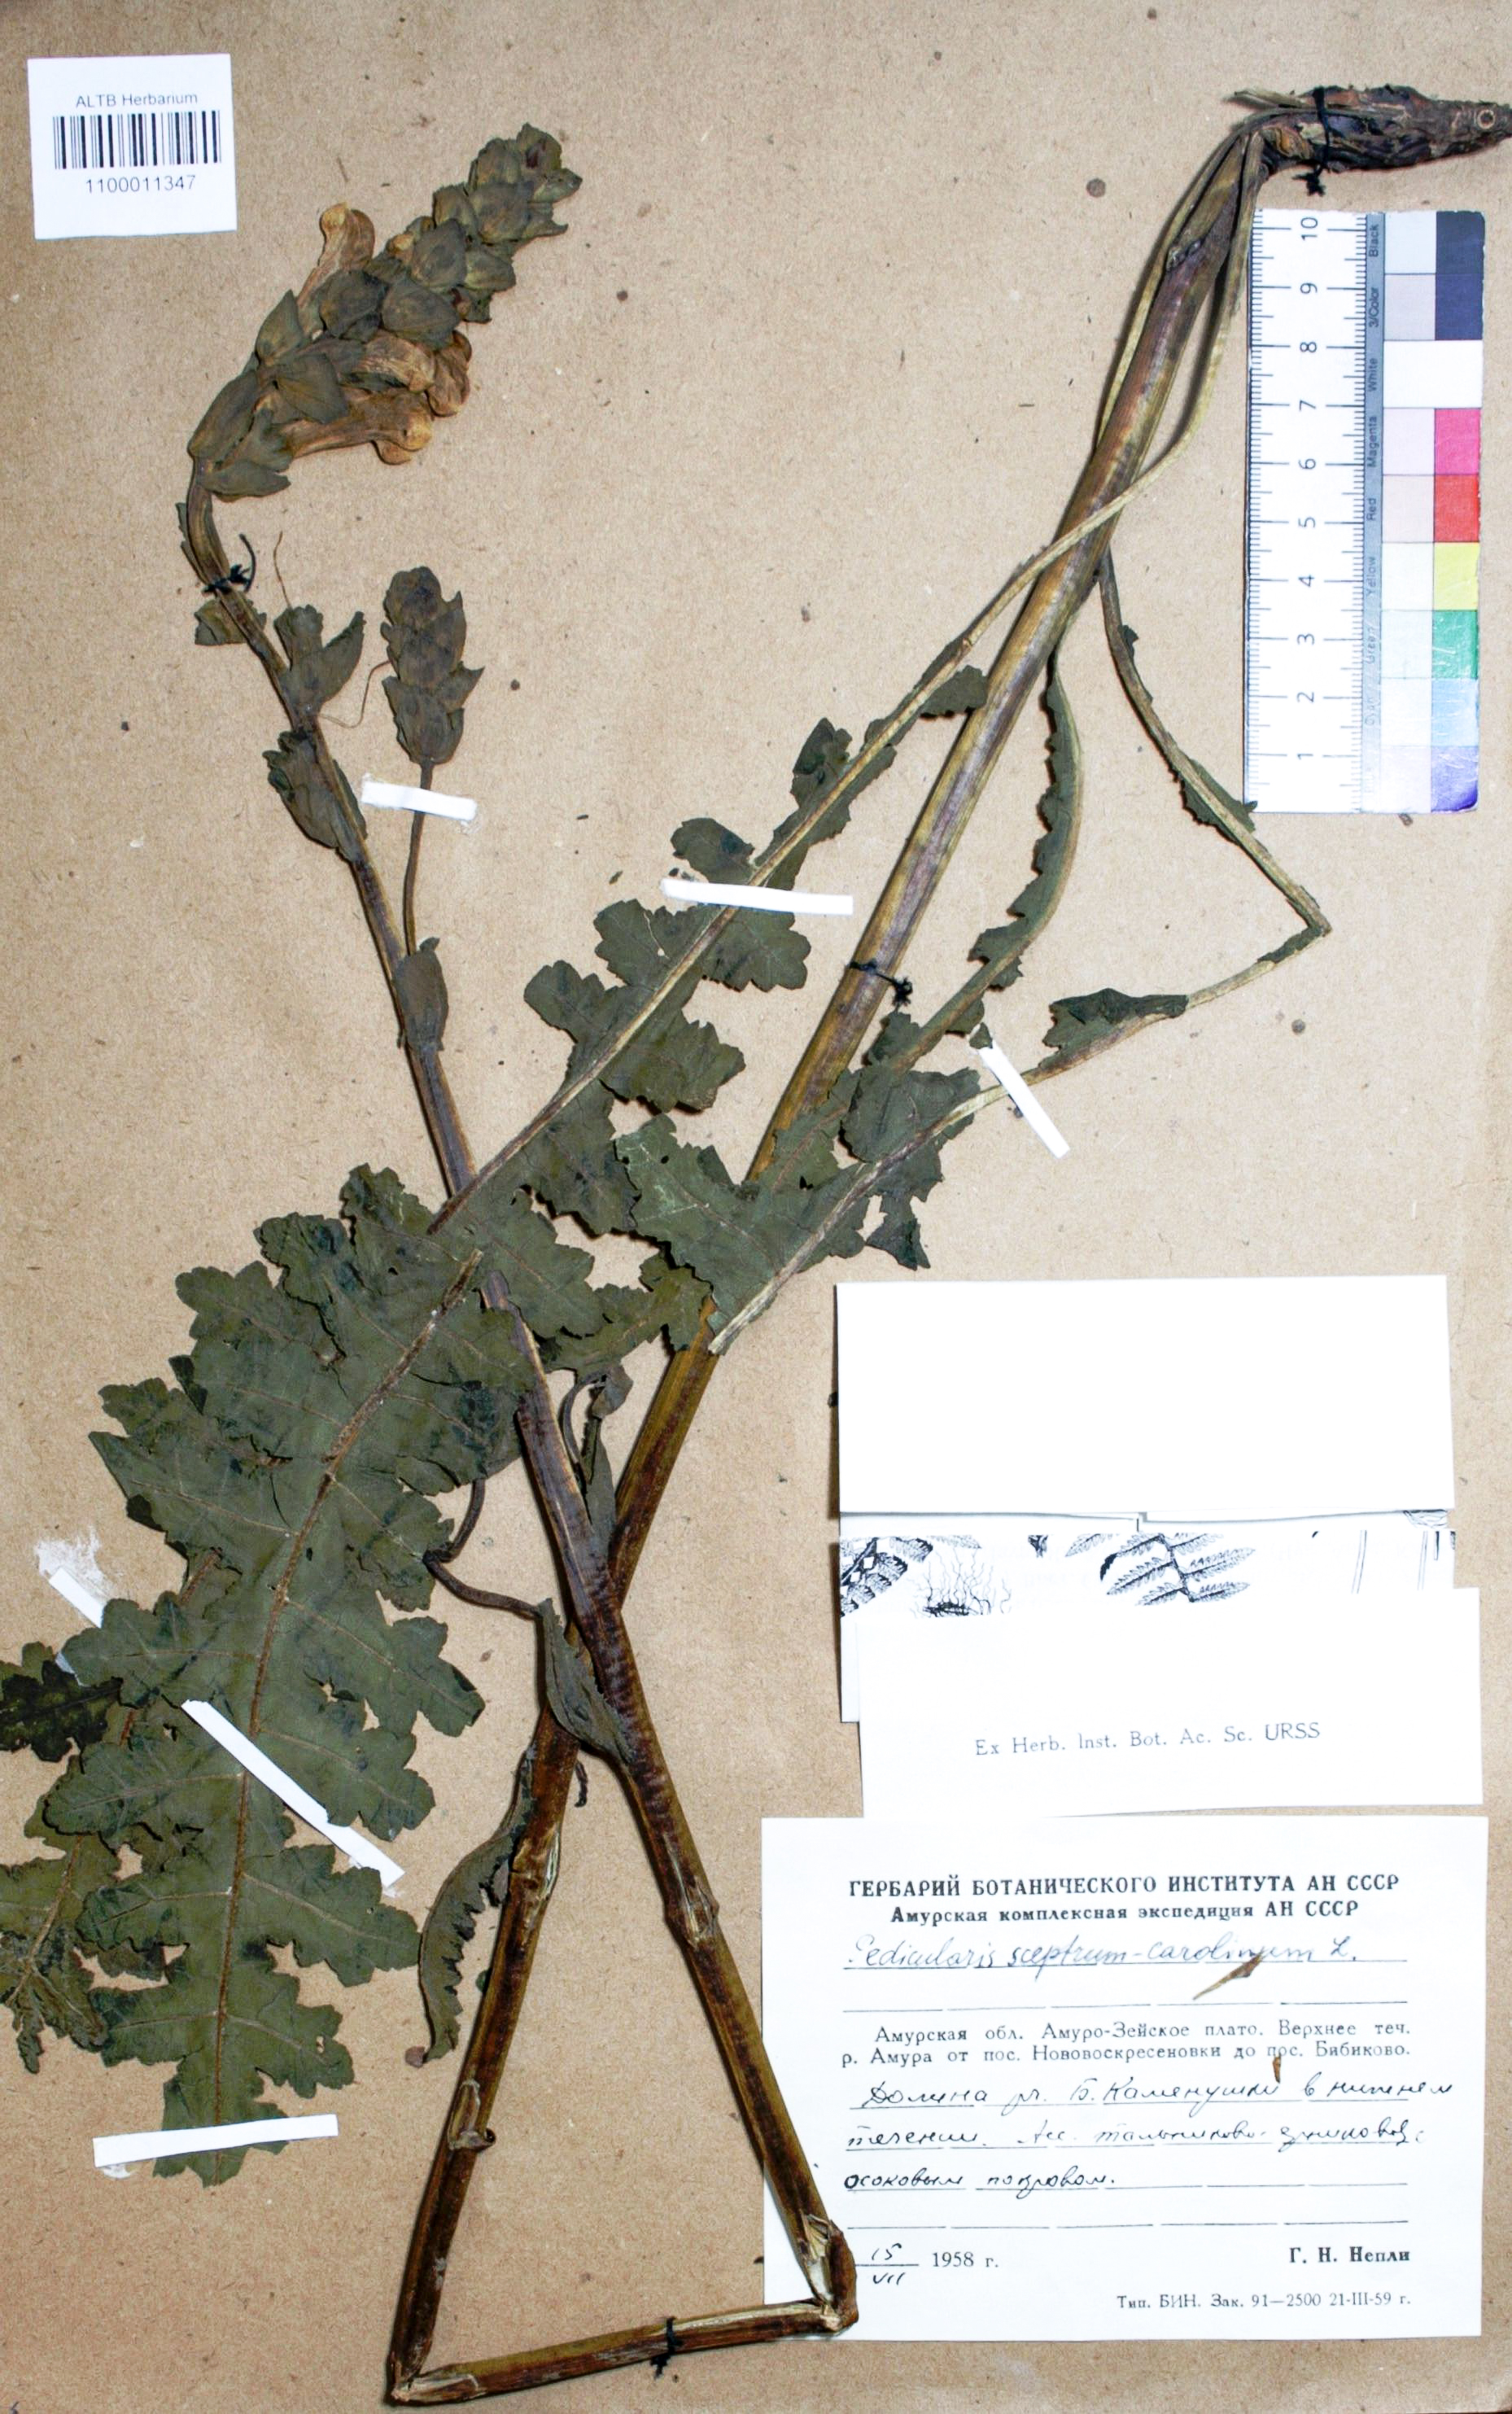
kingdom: Plantae
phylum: Tracheophyta
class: Magnoliopsida
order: Lamiales
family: Orobanchaceae
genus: Pedicularis
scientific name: Pedicularis sceptrum-carolinum
